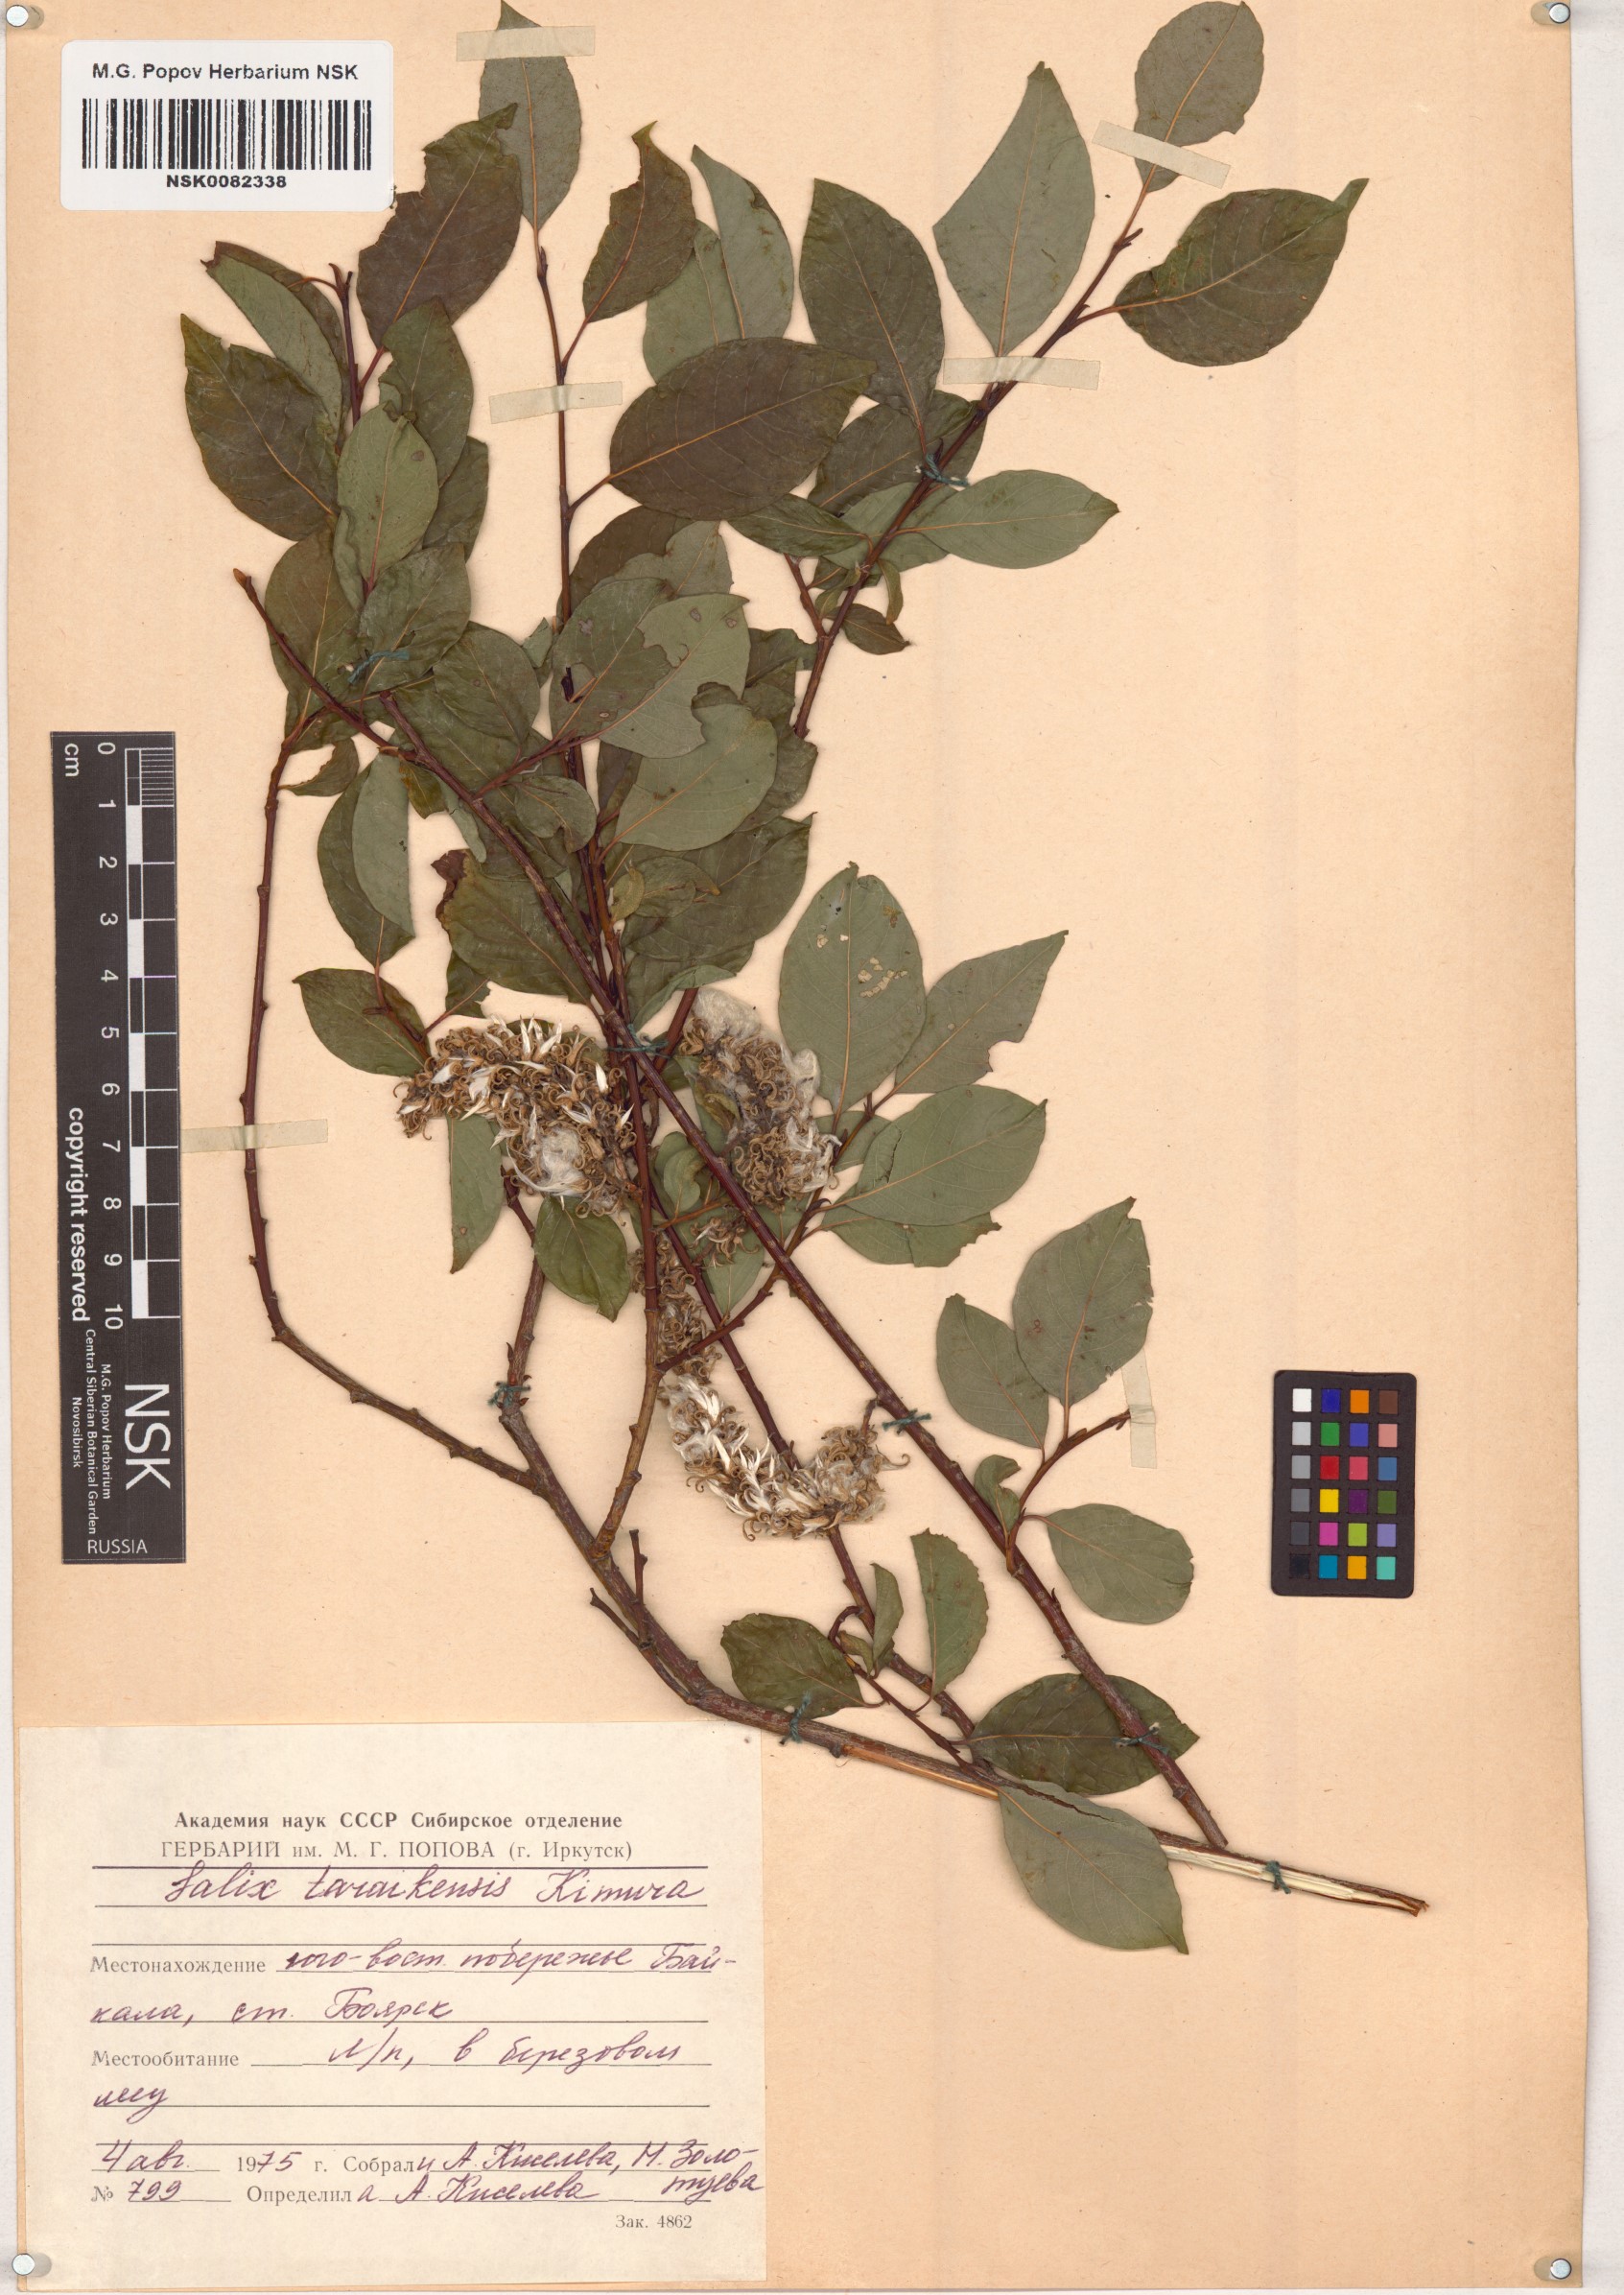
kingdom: Plantae
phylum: Tracheophyta
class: Magnoliopsida
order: Malpighiales
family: Salicaceae
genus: Salix
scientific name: Salix taraikensis
